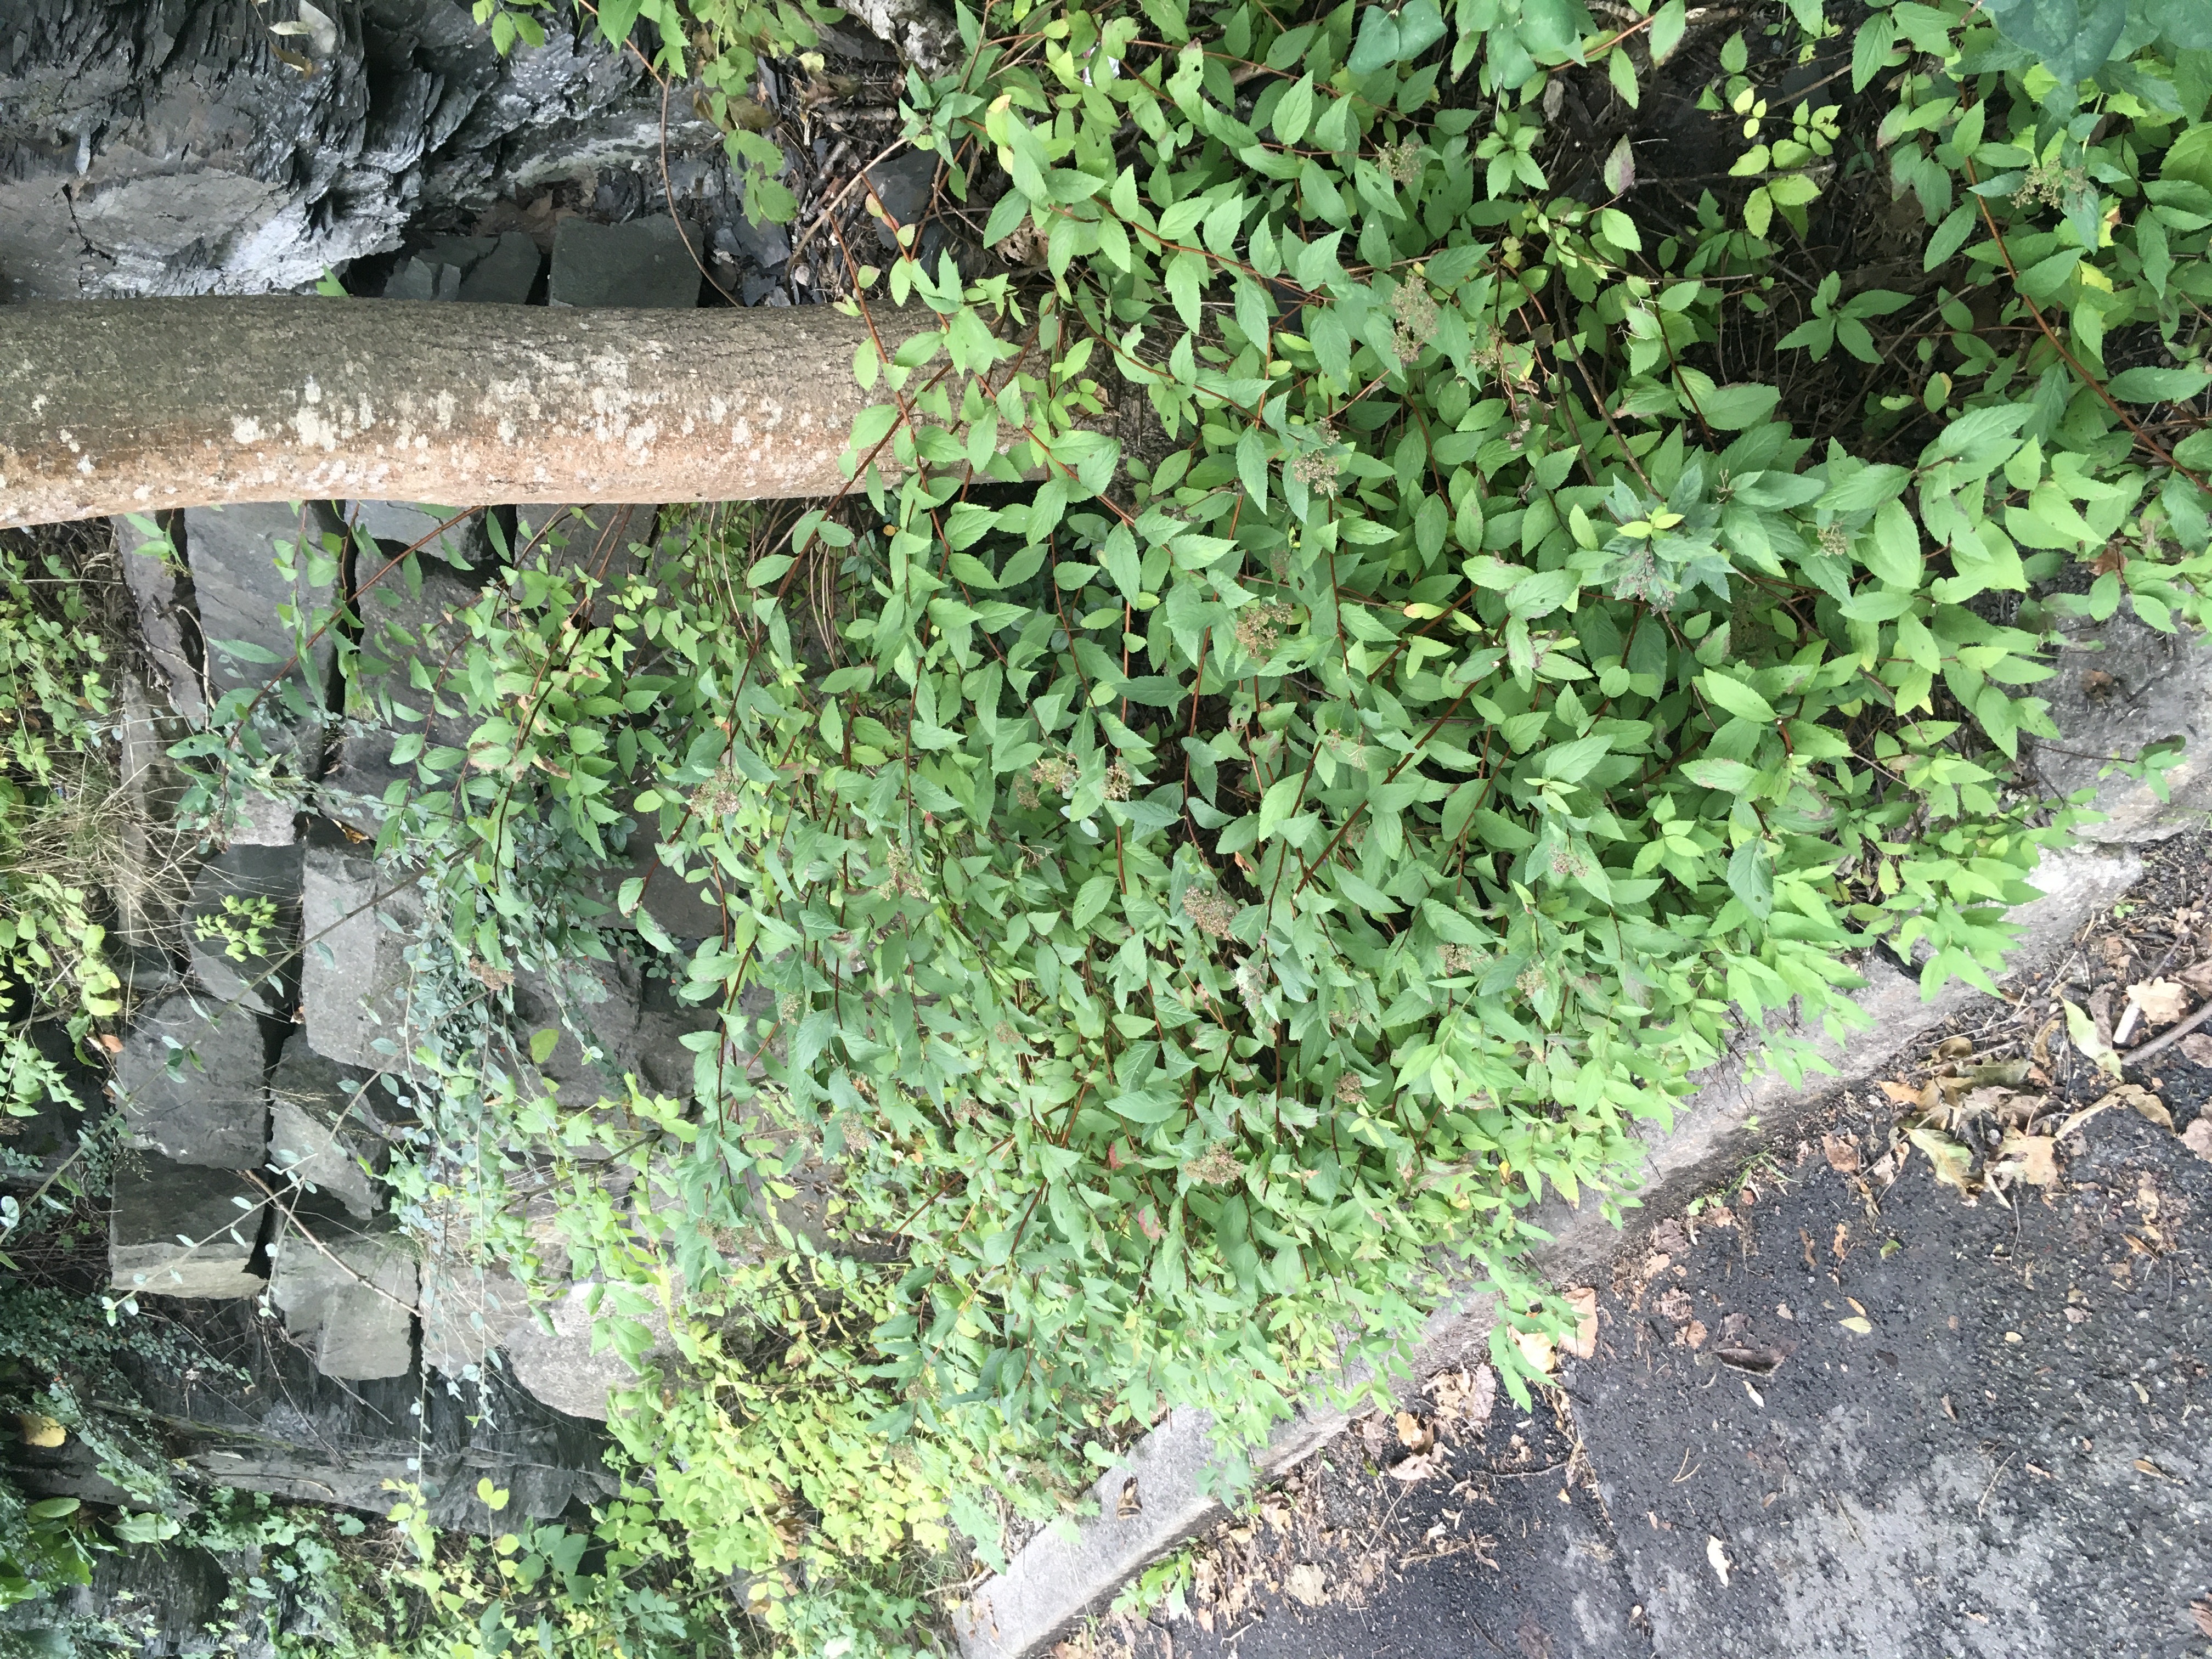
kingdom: Plantae
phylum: Tracheophyta
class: Magnoliopsida
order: Rosales
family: Rosaceae
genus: Spiraea
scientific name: Spiraea japonica
